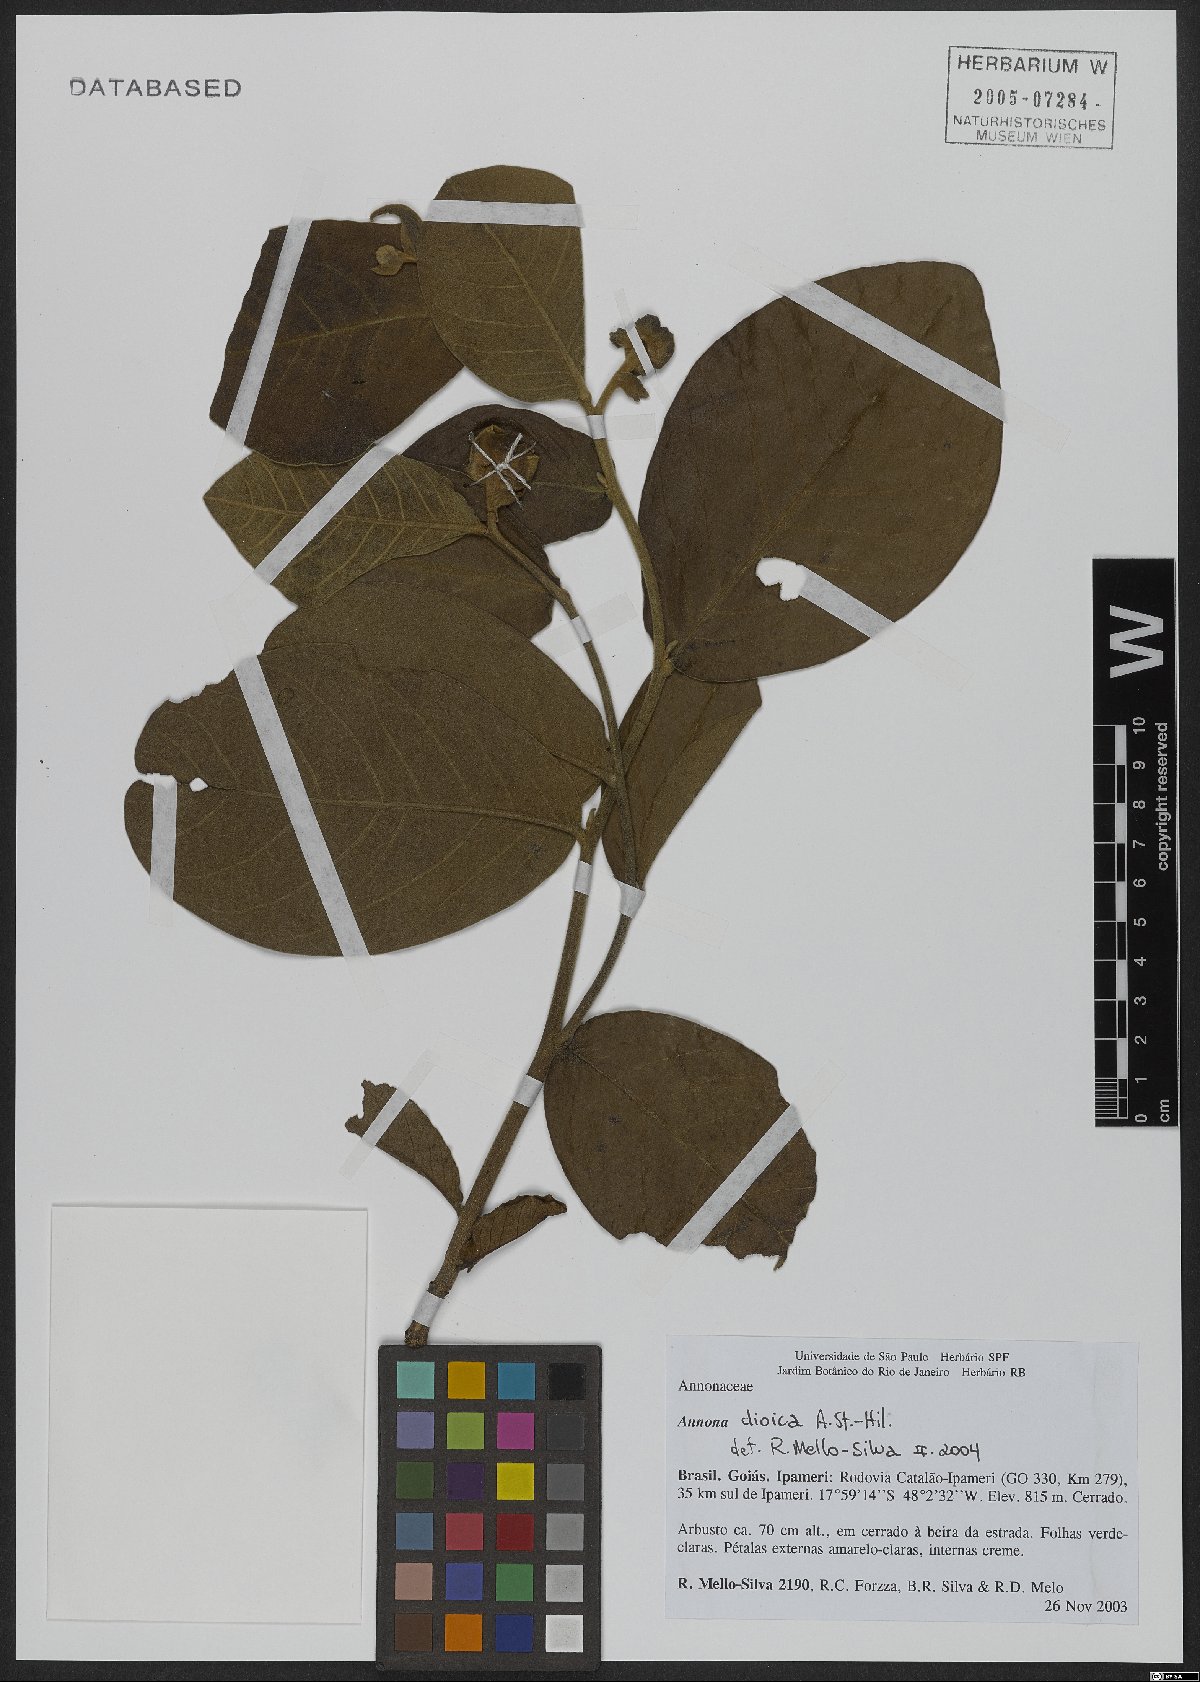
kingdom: Plantae
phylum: Tracheophyta
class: Magnoliopsida
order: Magnoliales
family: Annonaceae
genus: Annona
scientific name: Annona dioica
